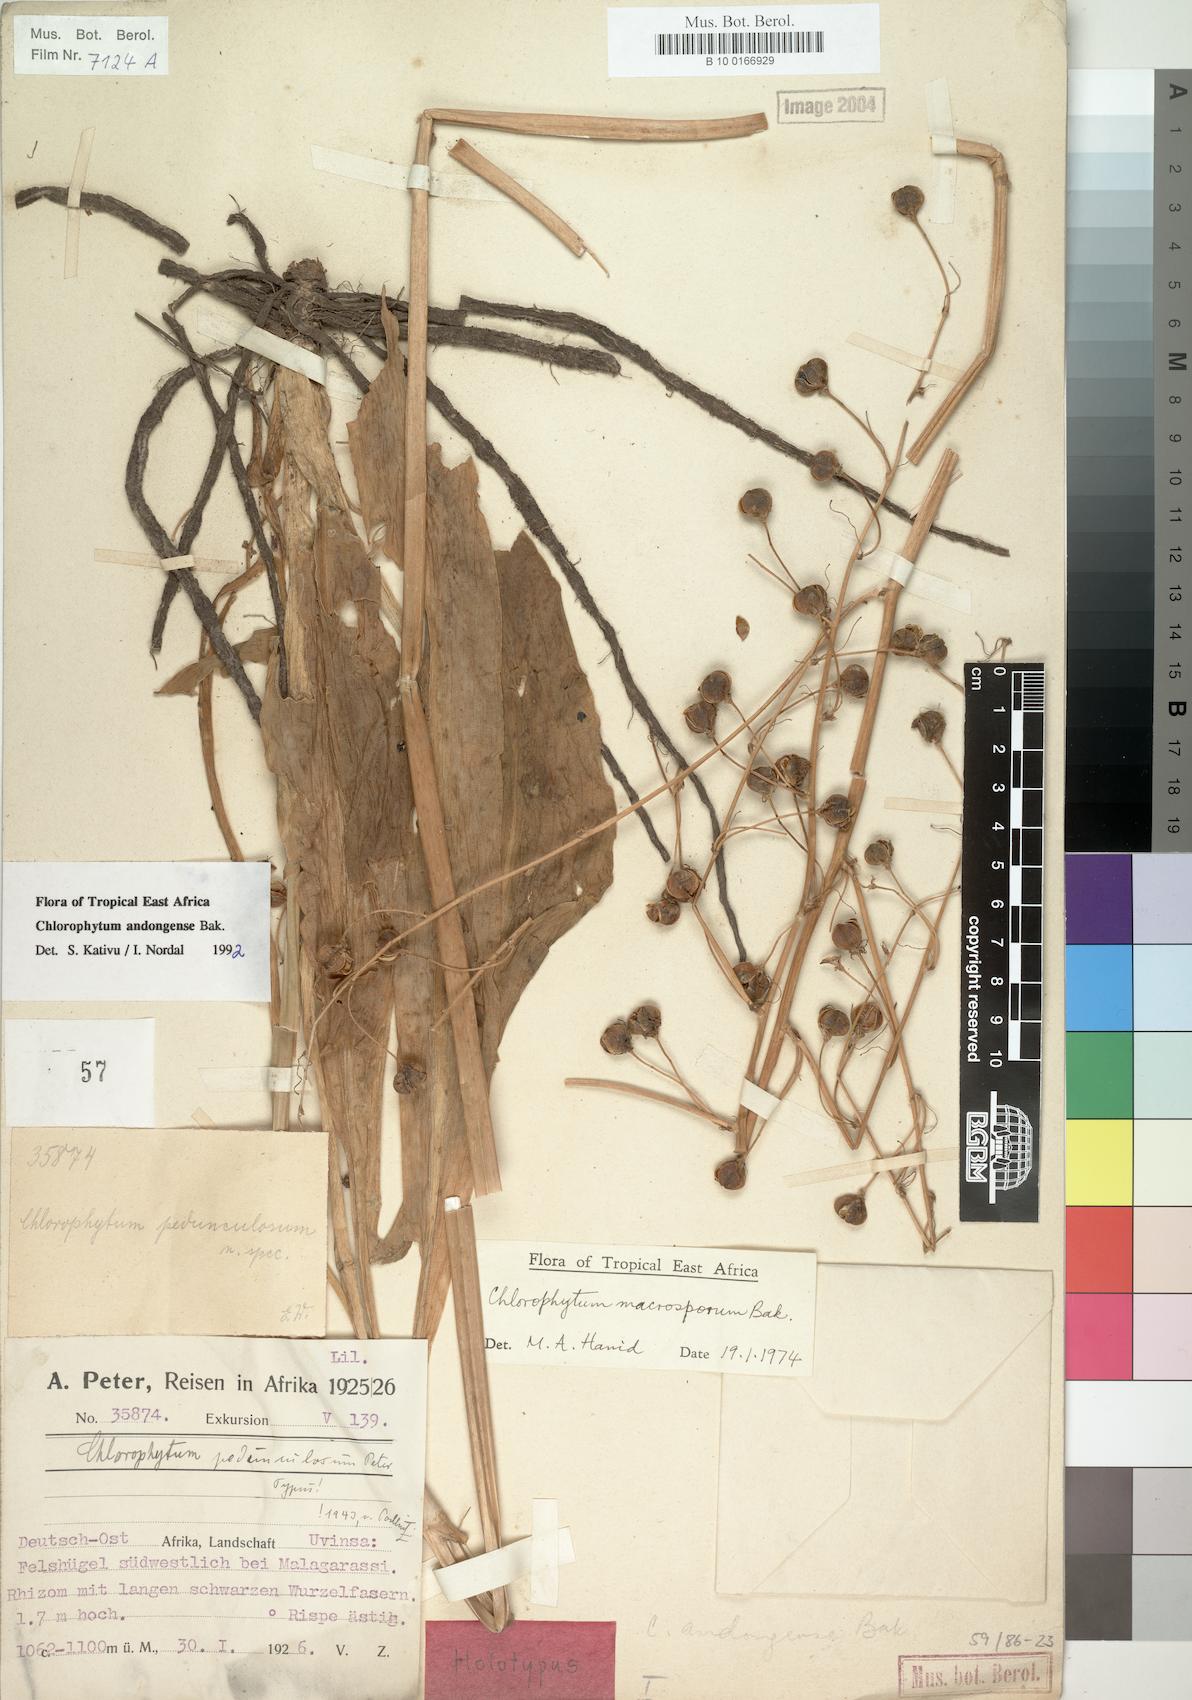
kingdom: Plantae
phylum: Tracheophyta
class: Liliopsida
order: Asparagales
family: Asparagaceae
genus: Chlorophytum
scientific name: Chlorophytum andongense
